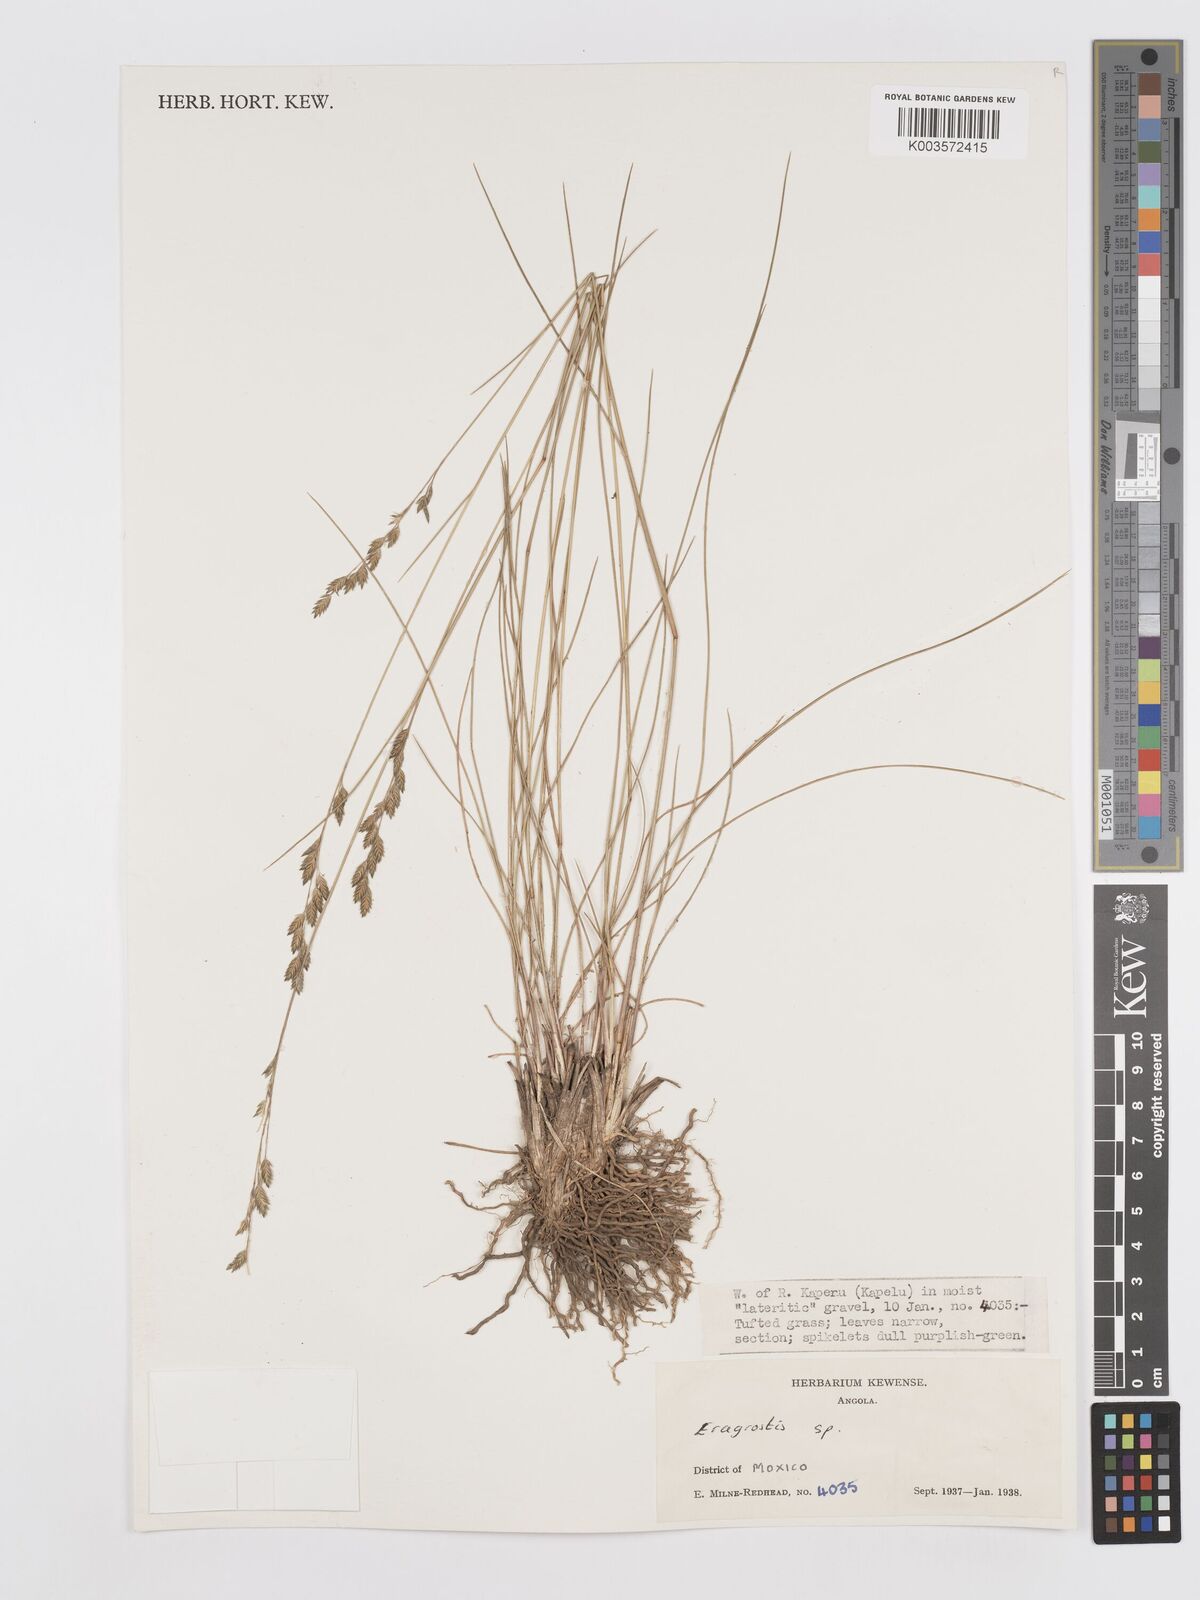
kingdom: Plantae
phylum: Tracheophyta
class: Liliopsida
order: Poales
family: Poaceae
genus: Eragrostis
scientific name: Eragrostis
